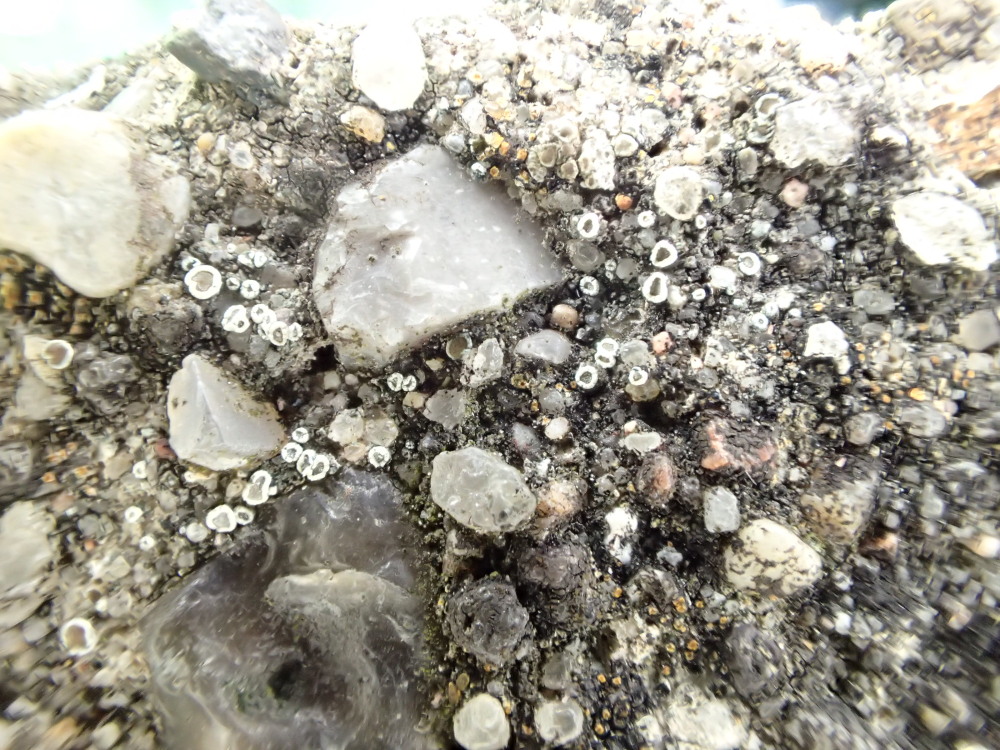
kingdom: Fungi
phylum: Ascomycota
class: Lecanoromycetes
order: Lecanorales
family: Lecanoraceae
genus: Myriolecis
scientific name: Myriolecis crenulata
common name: beton-kantskivelav
